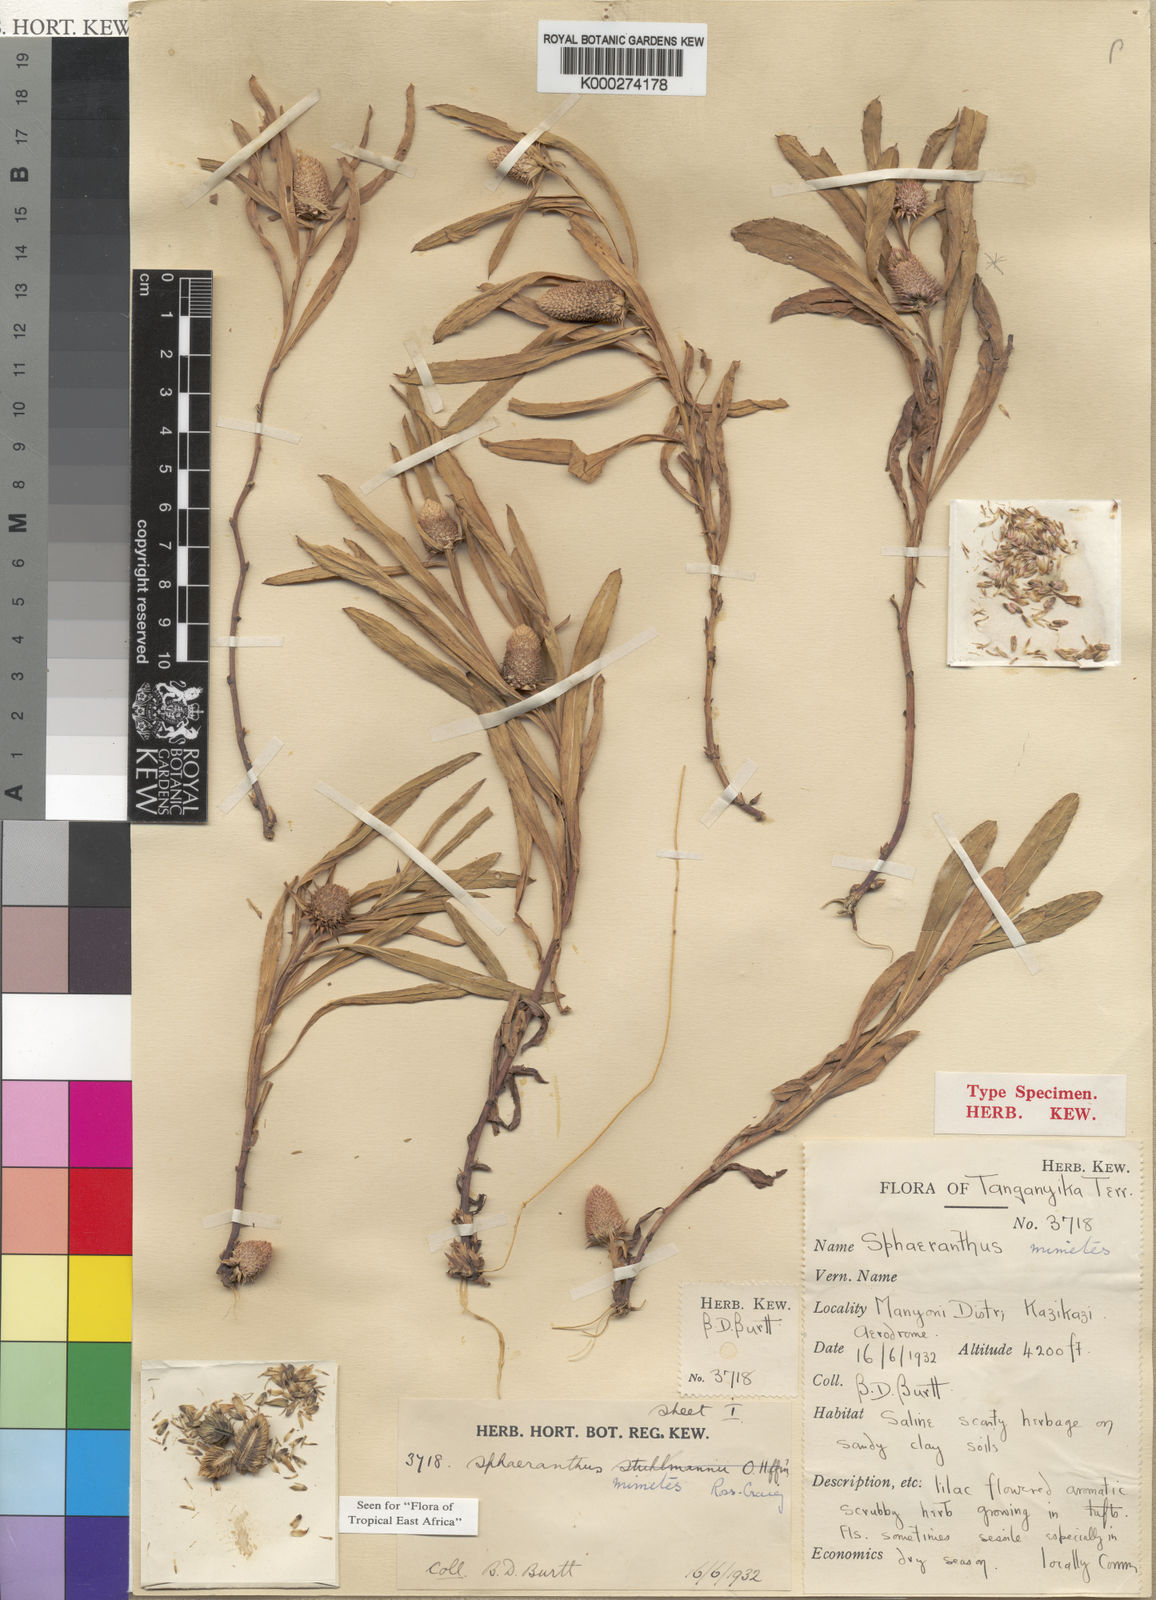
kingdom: Plantae
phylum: Tracheophyta
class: Magnoliopsida
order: Asterales
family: Asteraceae
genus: Sphaeranthus
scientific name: Sphaeranthus mimetes
